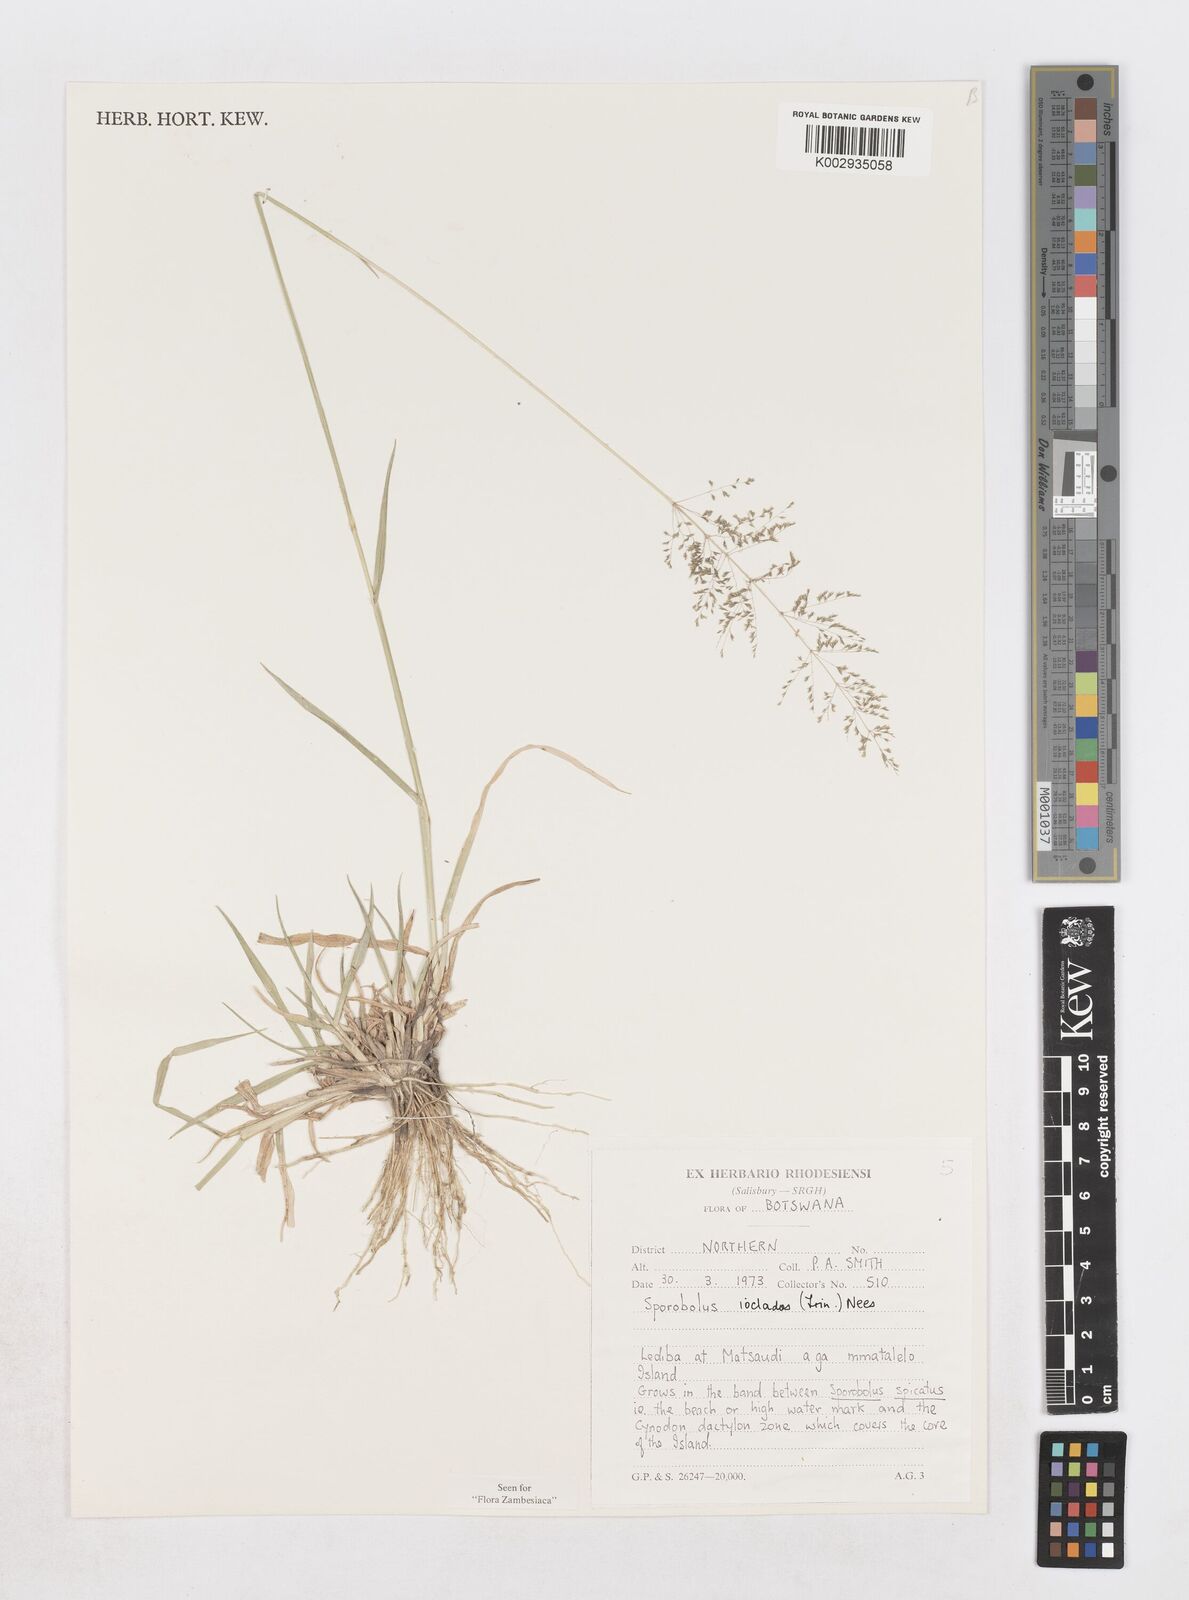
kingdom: Plantae
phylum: Tracheophyta
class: Liliopsida
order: Poales
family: Poaceae
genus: Sporobolus
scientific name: Sporobolus ioclados
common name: Pan dropseed
